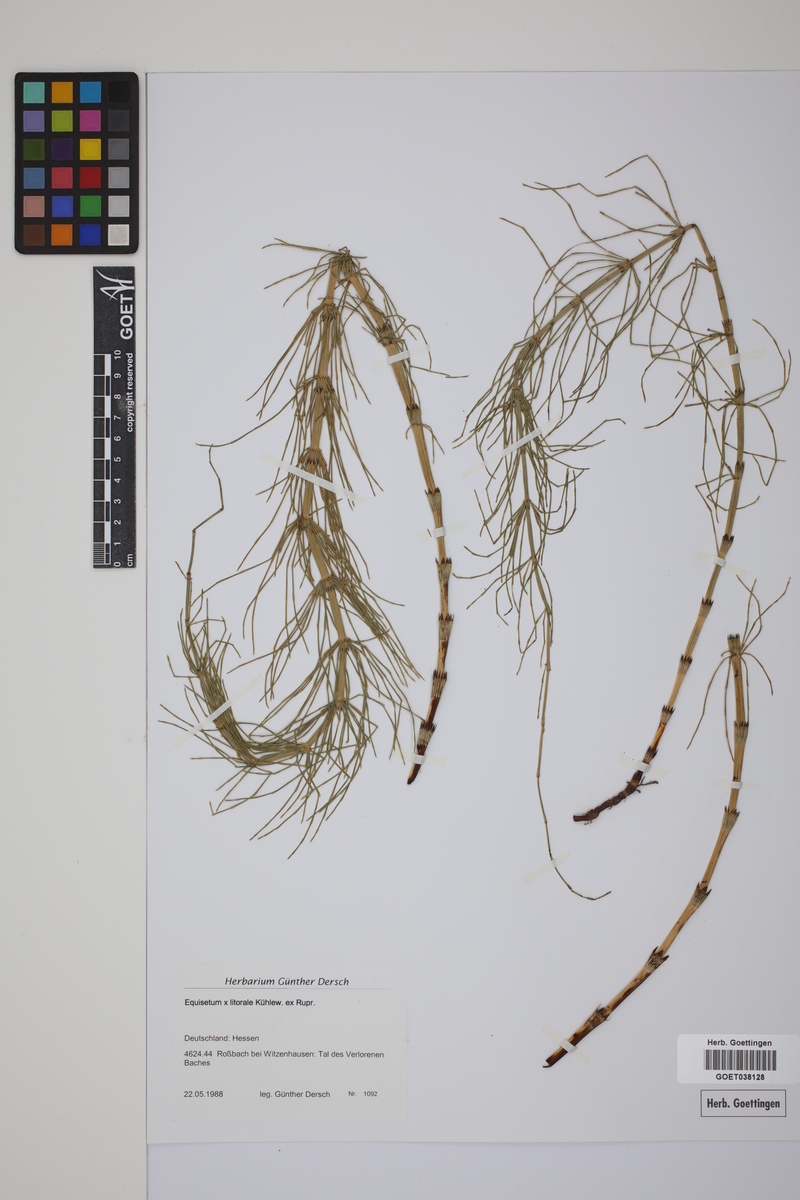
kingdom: Plantae
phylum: Tracheophyta
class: Polypodiopsida
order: Equisetales
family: Equisetaceae
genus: Equisetum
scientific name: Equisetum litorale
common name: Littoral horsetail
